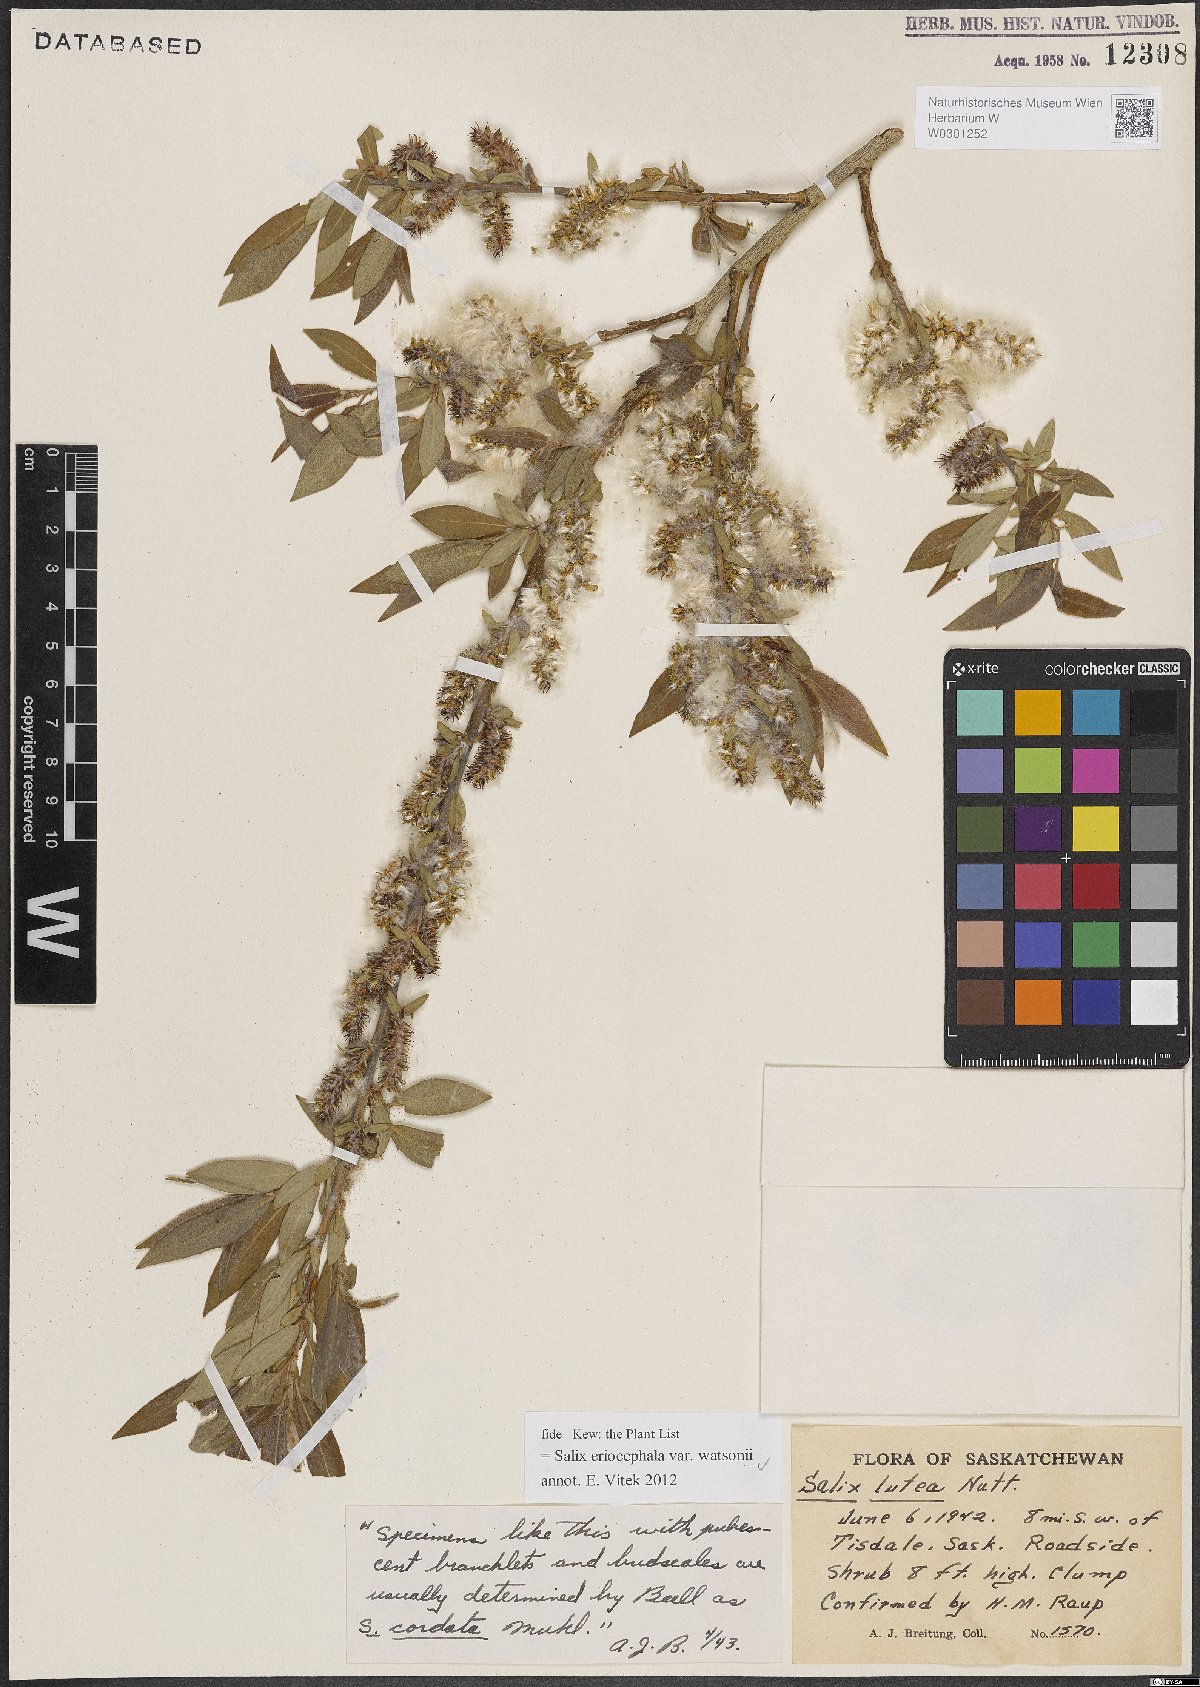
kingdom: Plantae
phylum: Tracheophyta
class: Magnoliopsida
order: Malpighiales
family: Salicaceae
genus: Salix
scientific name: Salix lutea
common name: Yellow willow
